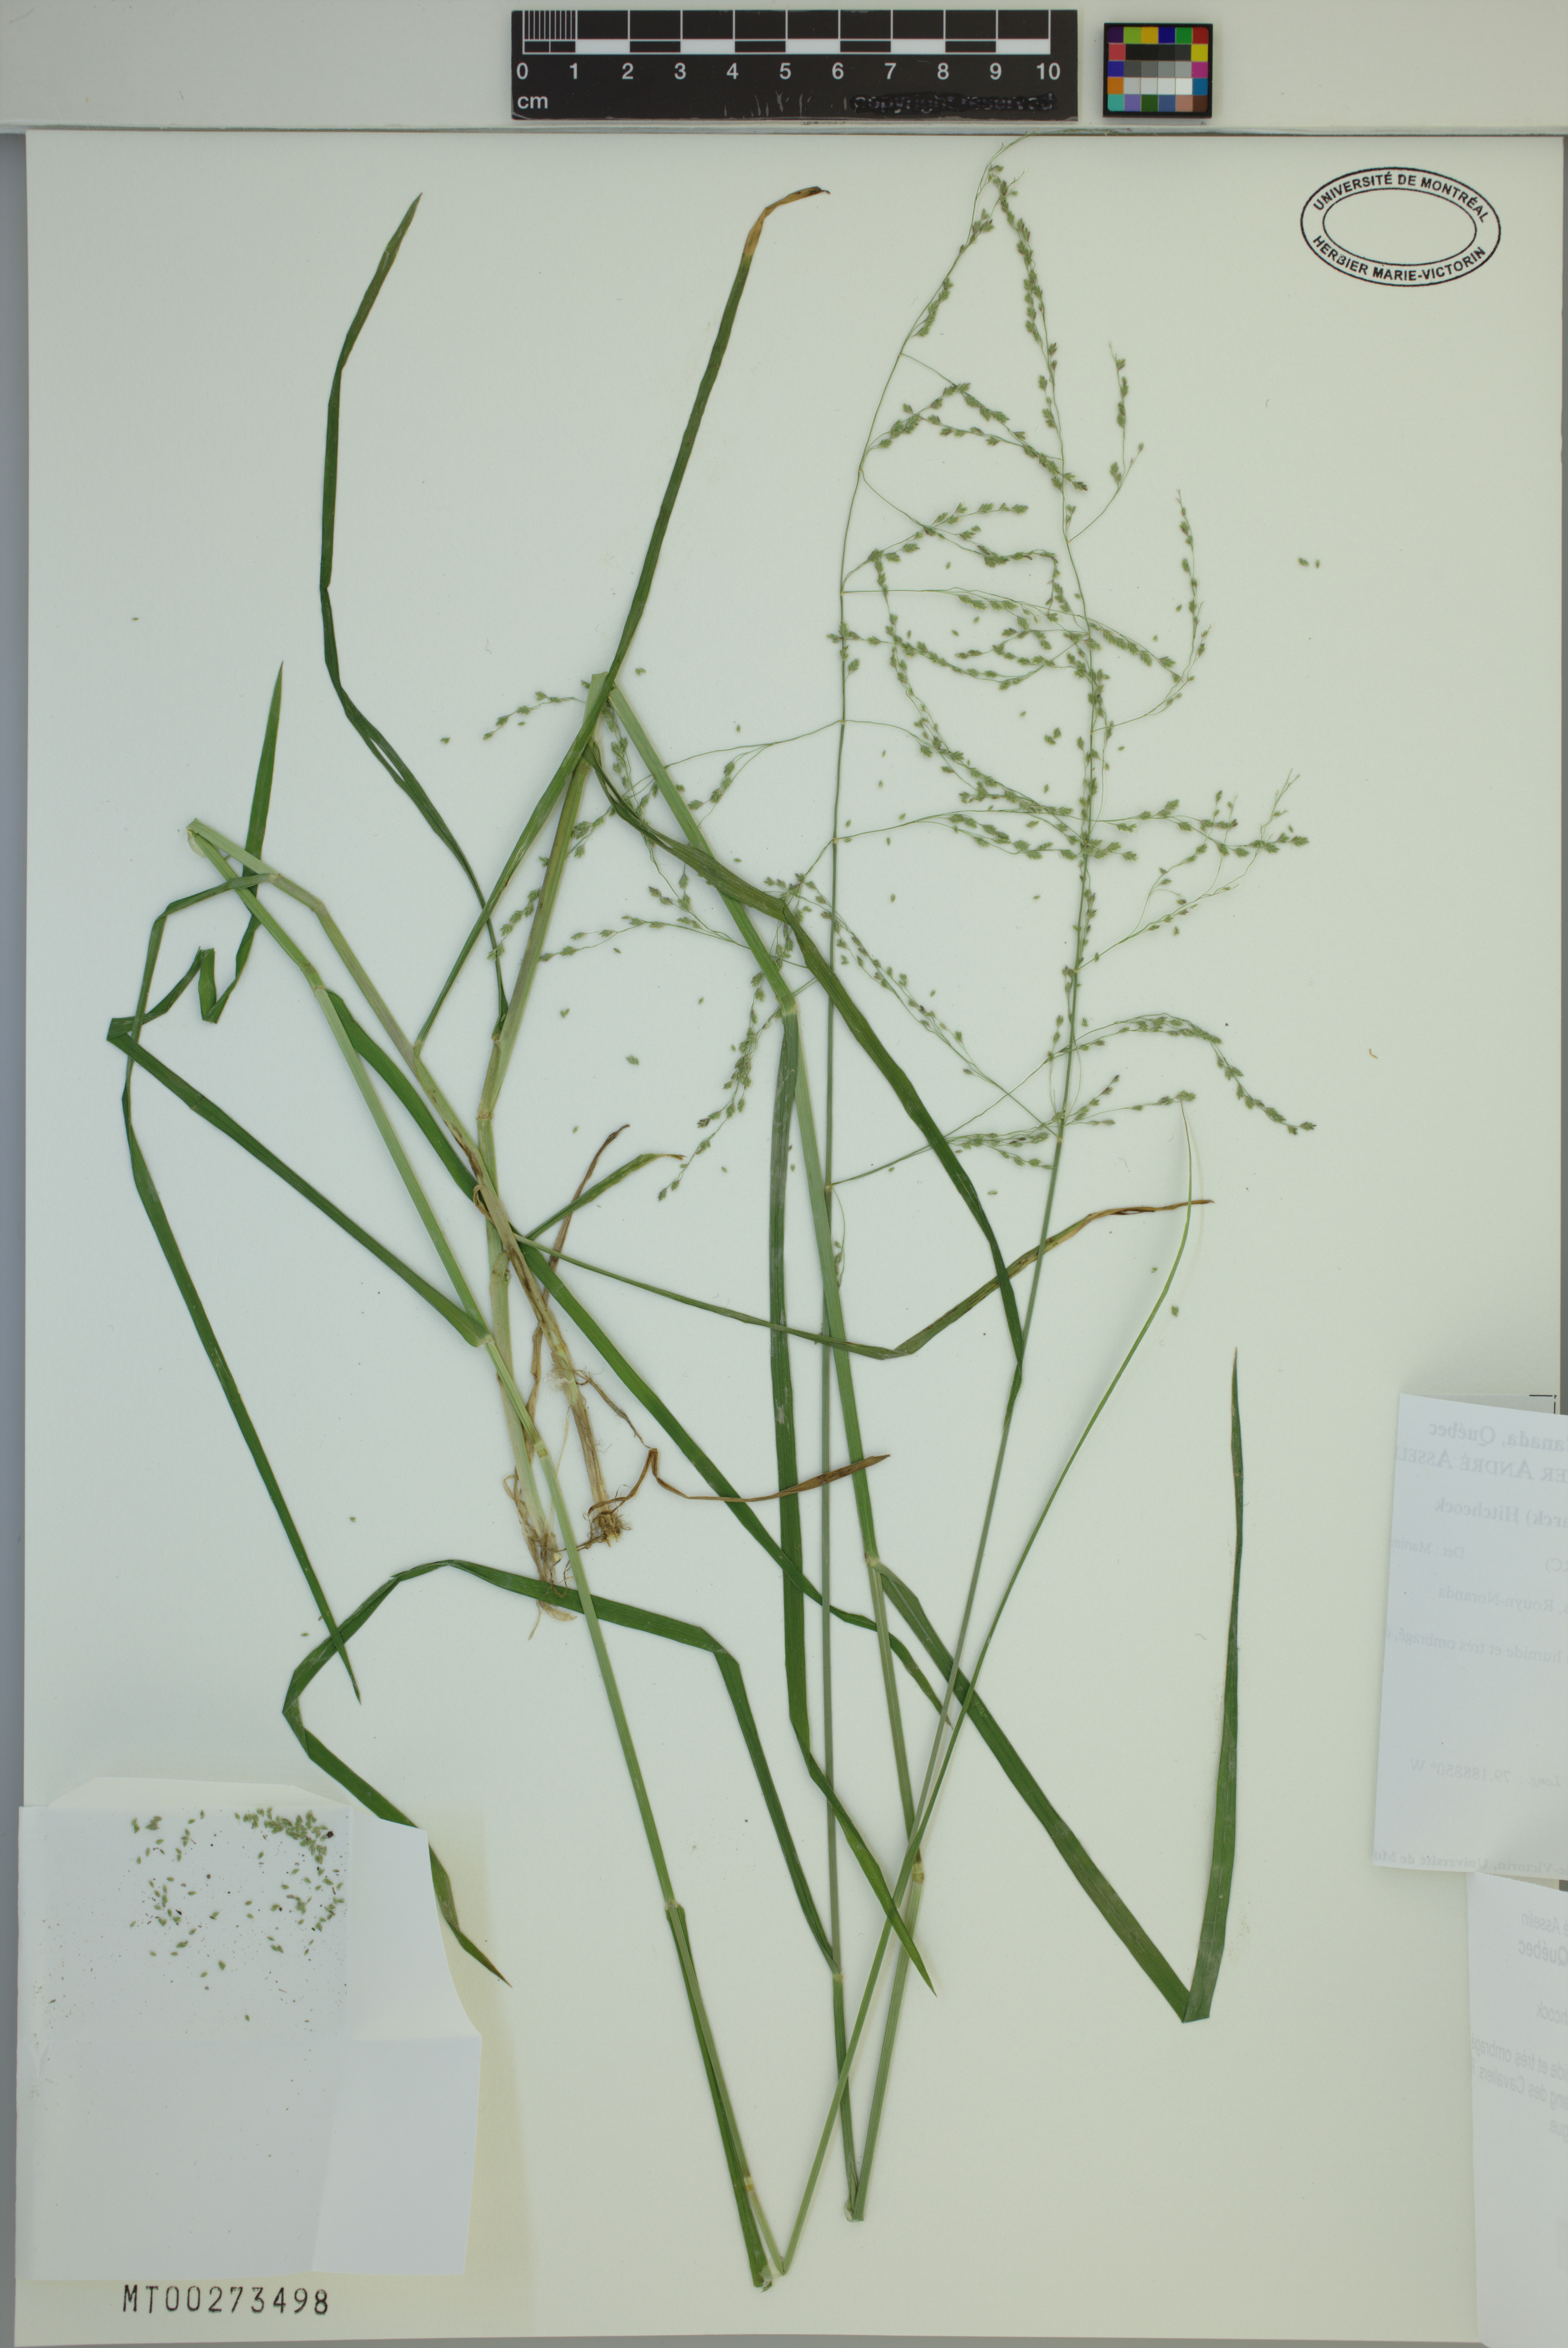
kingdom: Plantae
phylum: Tracheophyta
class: Liliopsida
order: Poales
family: Poaceae
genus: Glyceria
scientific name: Glyceria striata
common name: Fowl manna grass
